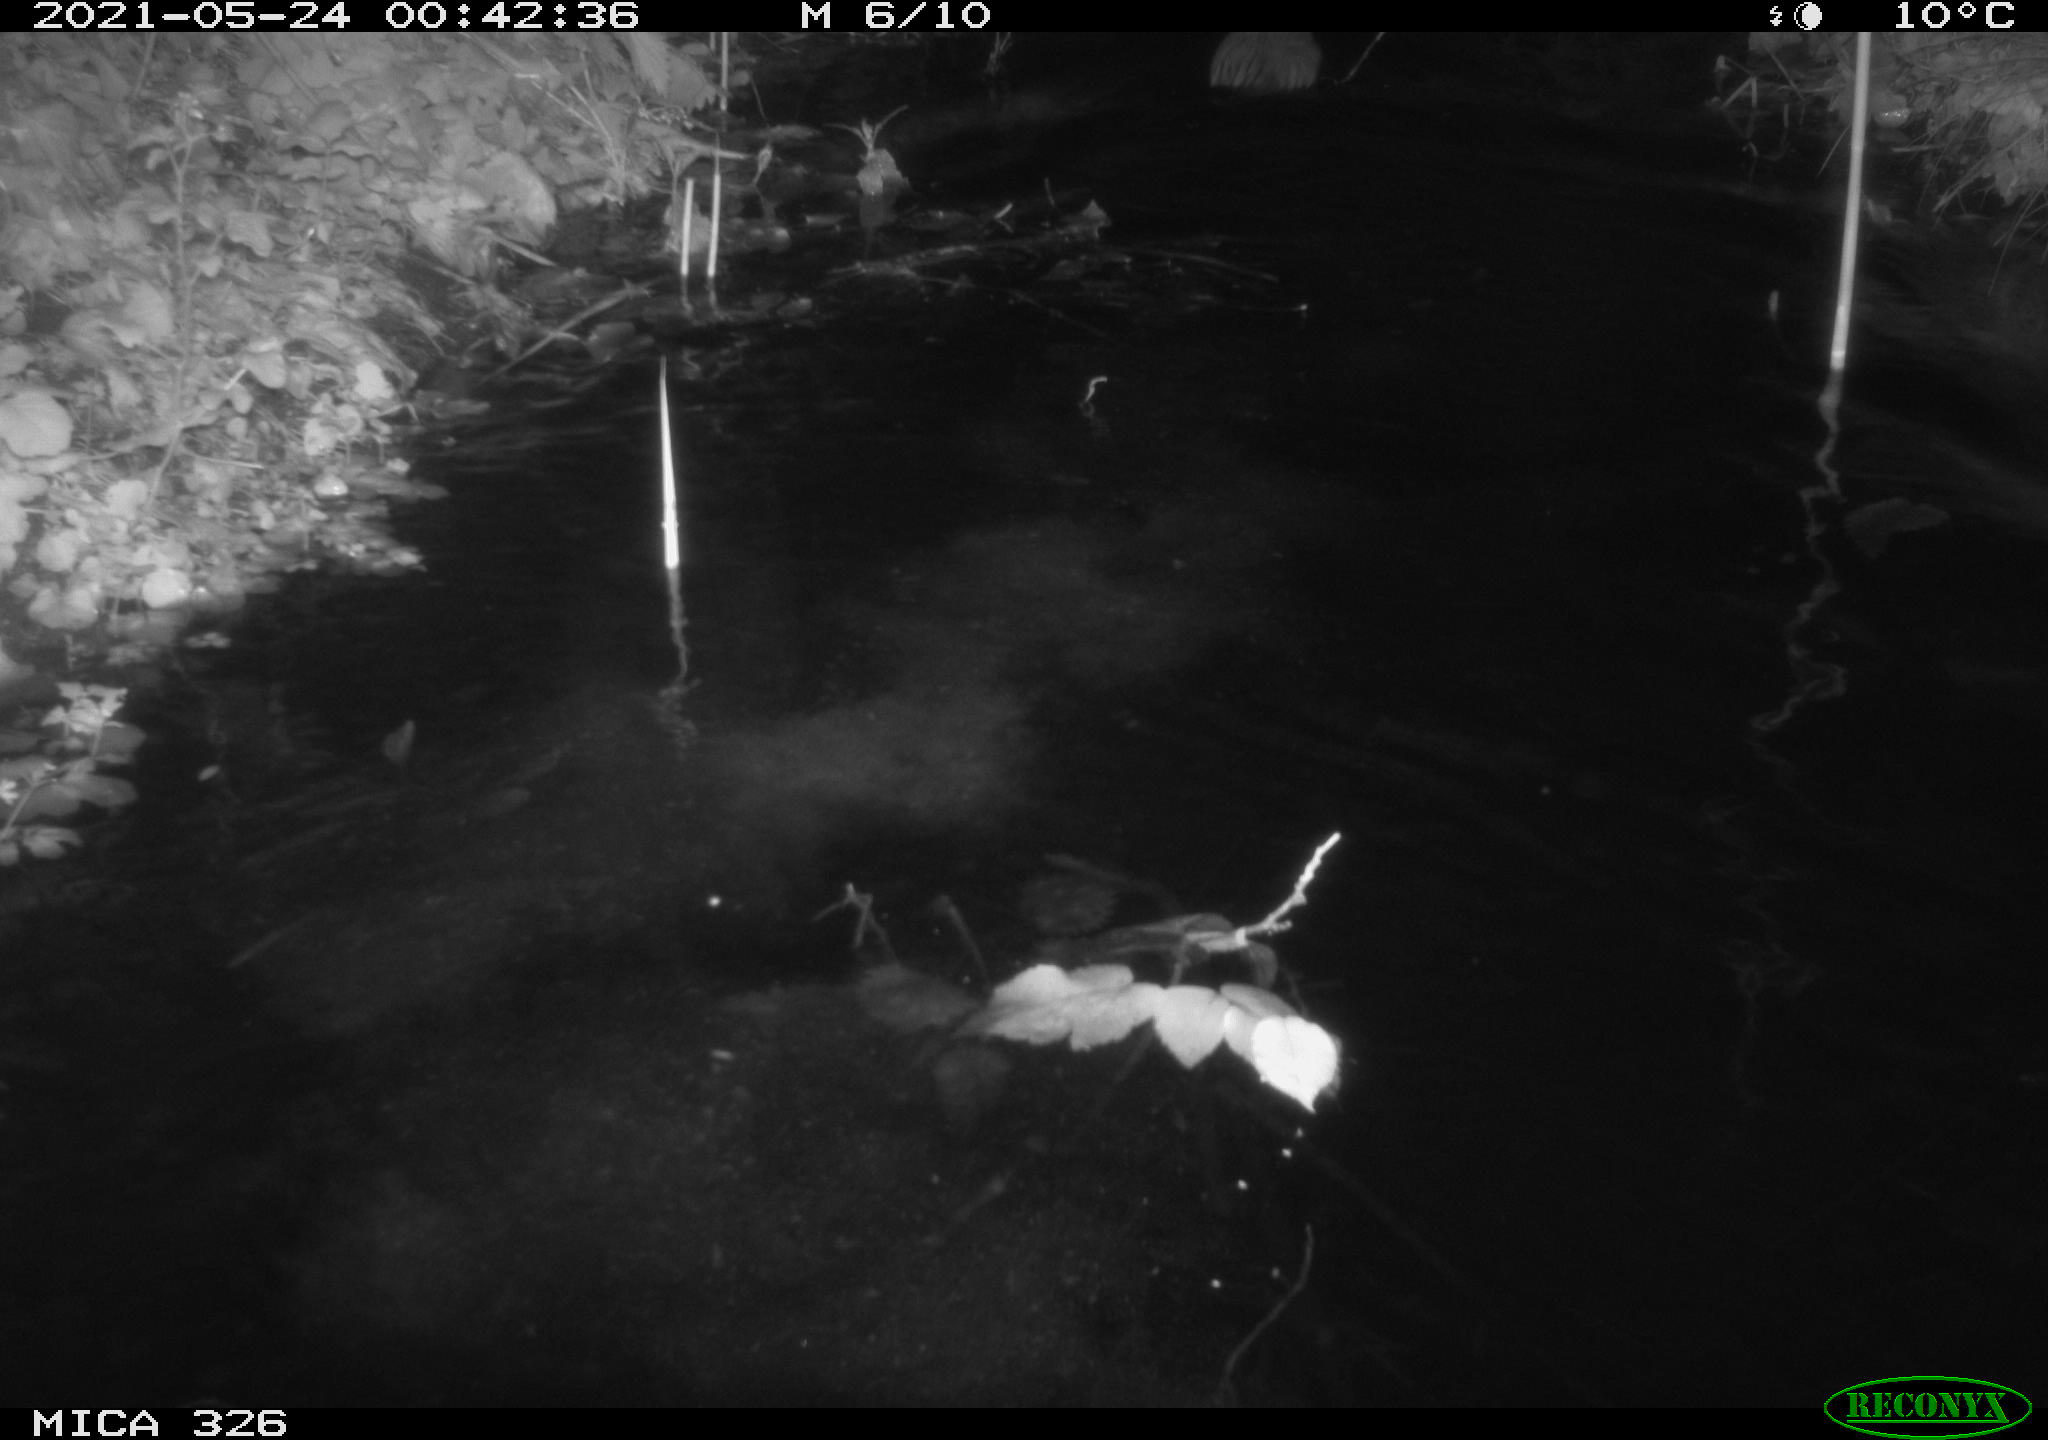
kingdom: Animalia
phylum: Chordata
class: Mammalia
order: Rodentia
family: Cricetidae
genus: Ondatra
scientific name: Ondatra zibethicus
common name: Muskrat
